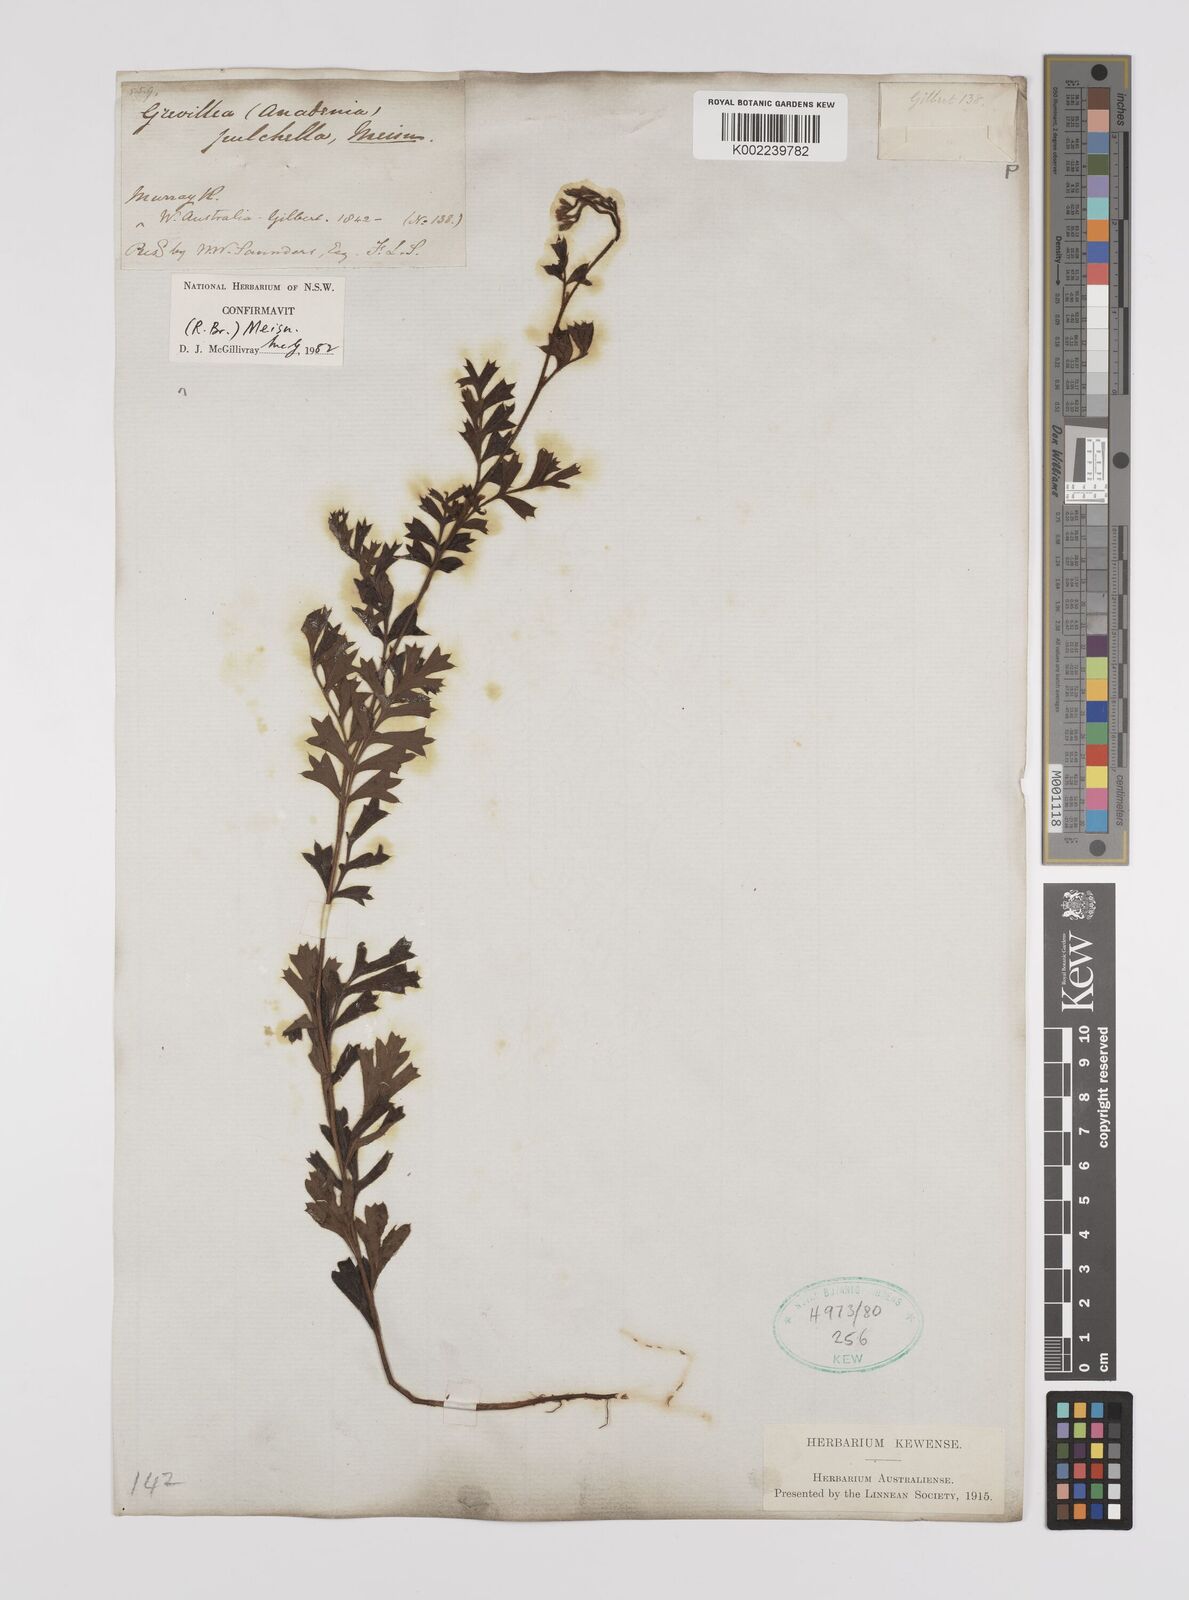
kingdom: Plantae
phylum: Tracheophyta
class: Magnoliopsida
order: Proteales
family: Proteaceae
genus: Grevillea
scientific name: Grevillea pulchella
